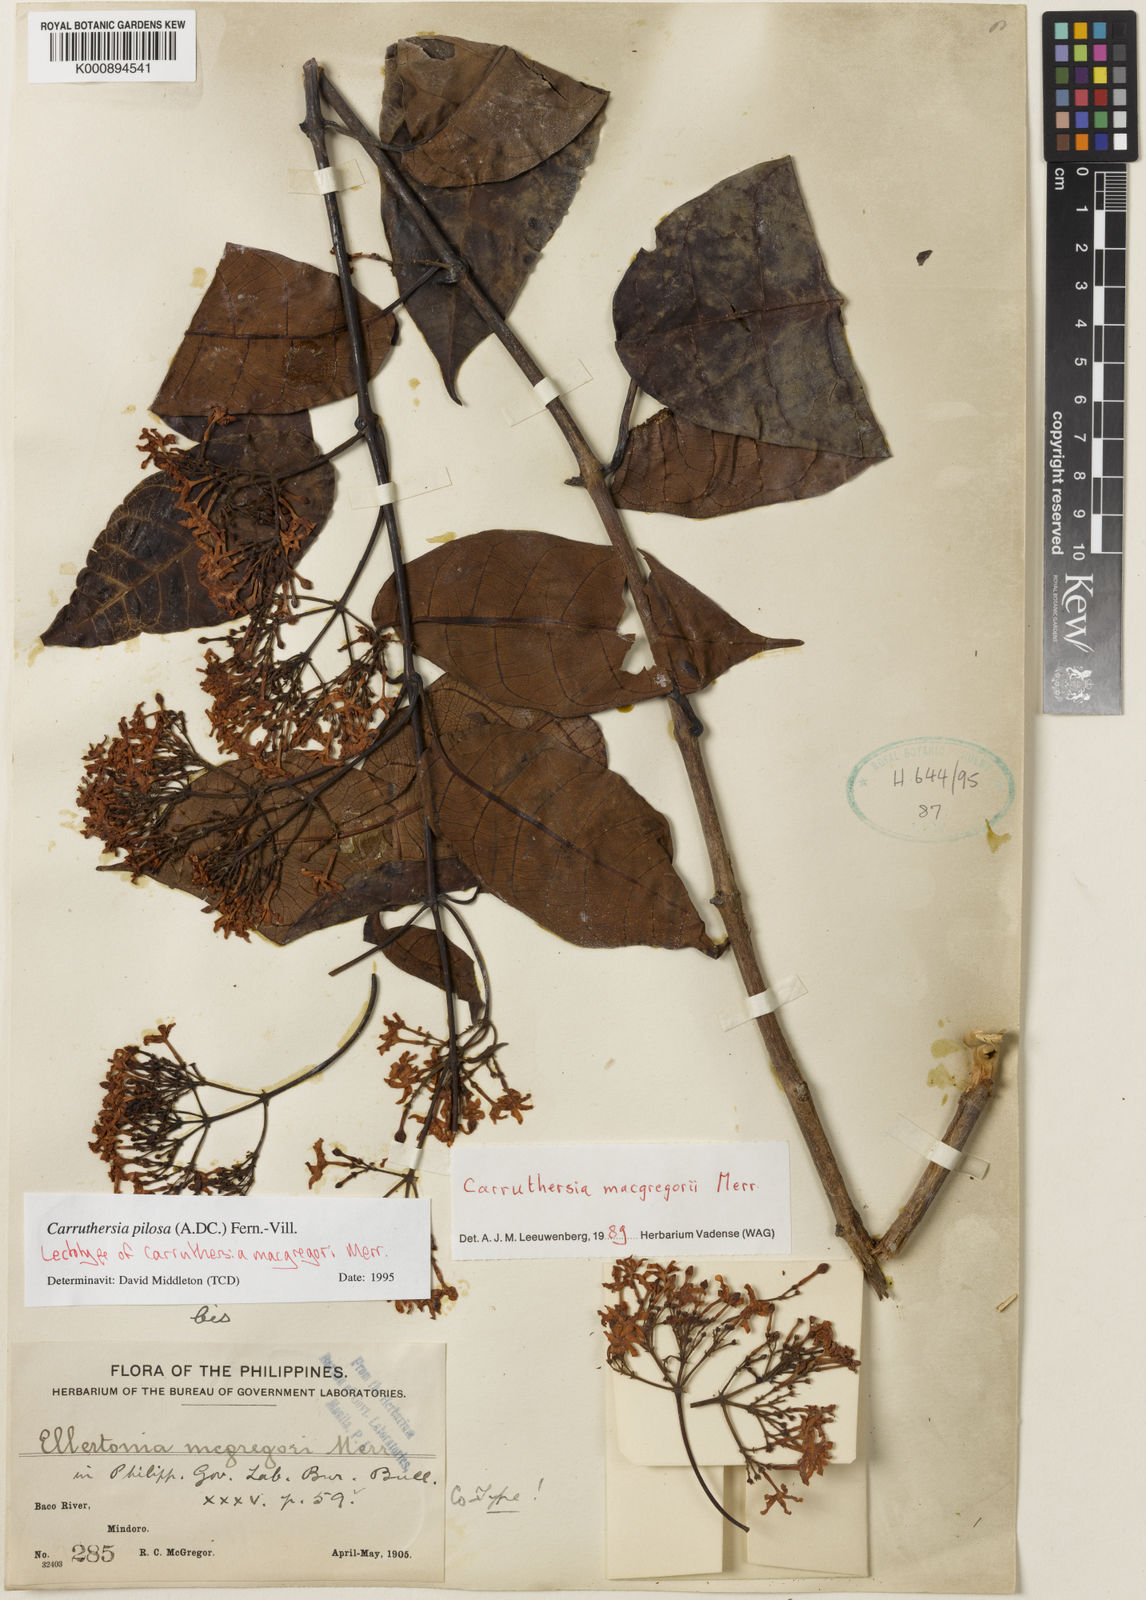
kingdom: Plantae
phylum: Tracheophyta
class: Magnoliopsida
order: Gentianales
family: Apocynaceae
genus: Carruthersia
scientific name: Carruthersia pilosa
